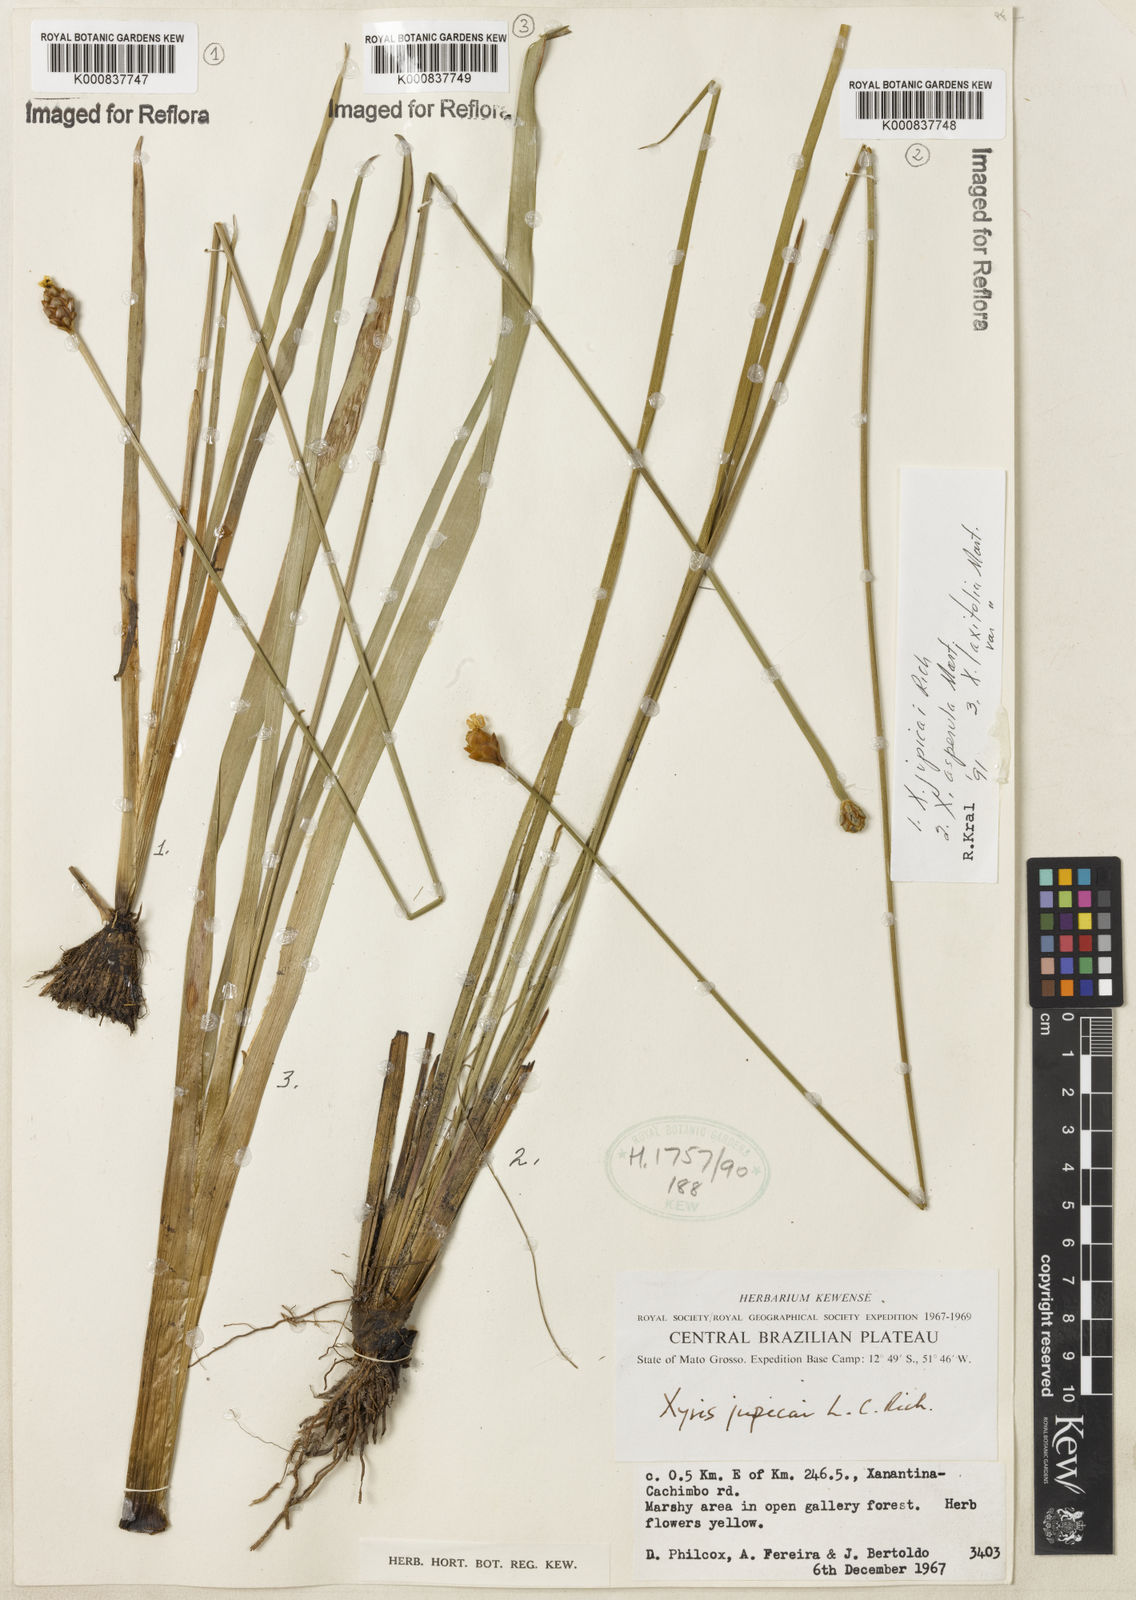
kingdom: Plantae
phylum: Tracheophyta
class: Liliopsida
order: Poales
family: Xyridaceae
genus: Xyris
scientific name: Xyris jupicai
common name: Richard's yelloweyed grass
